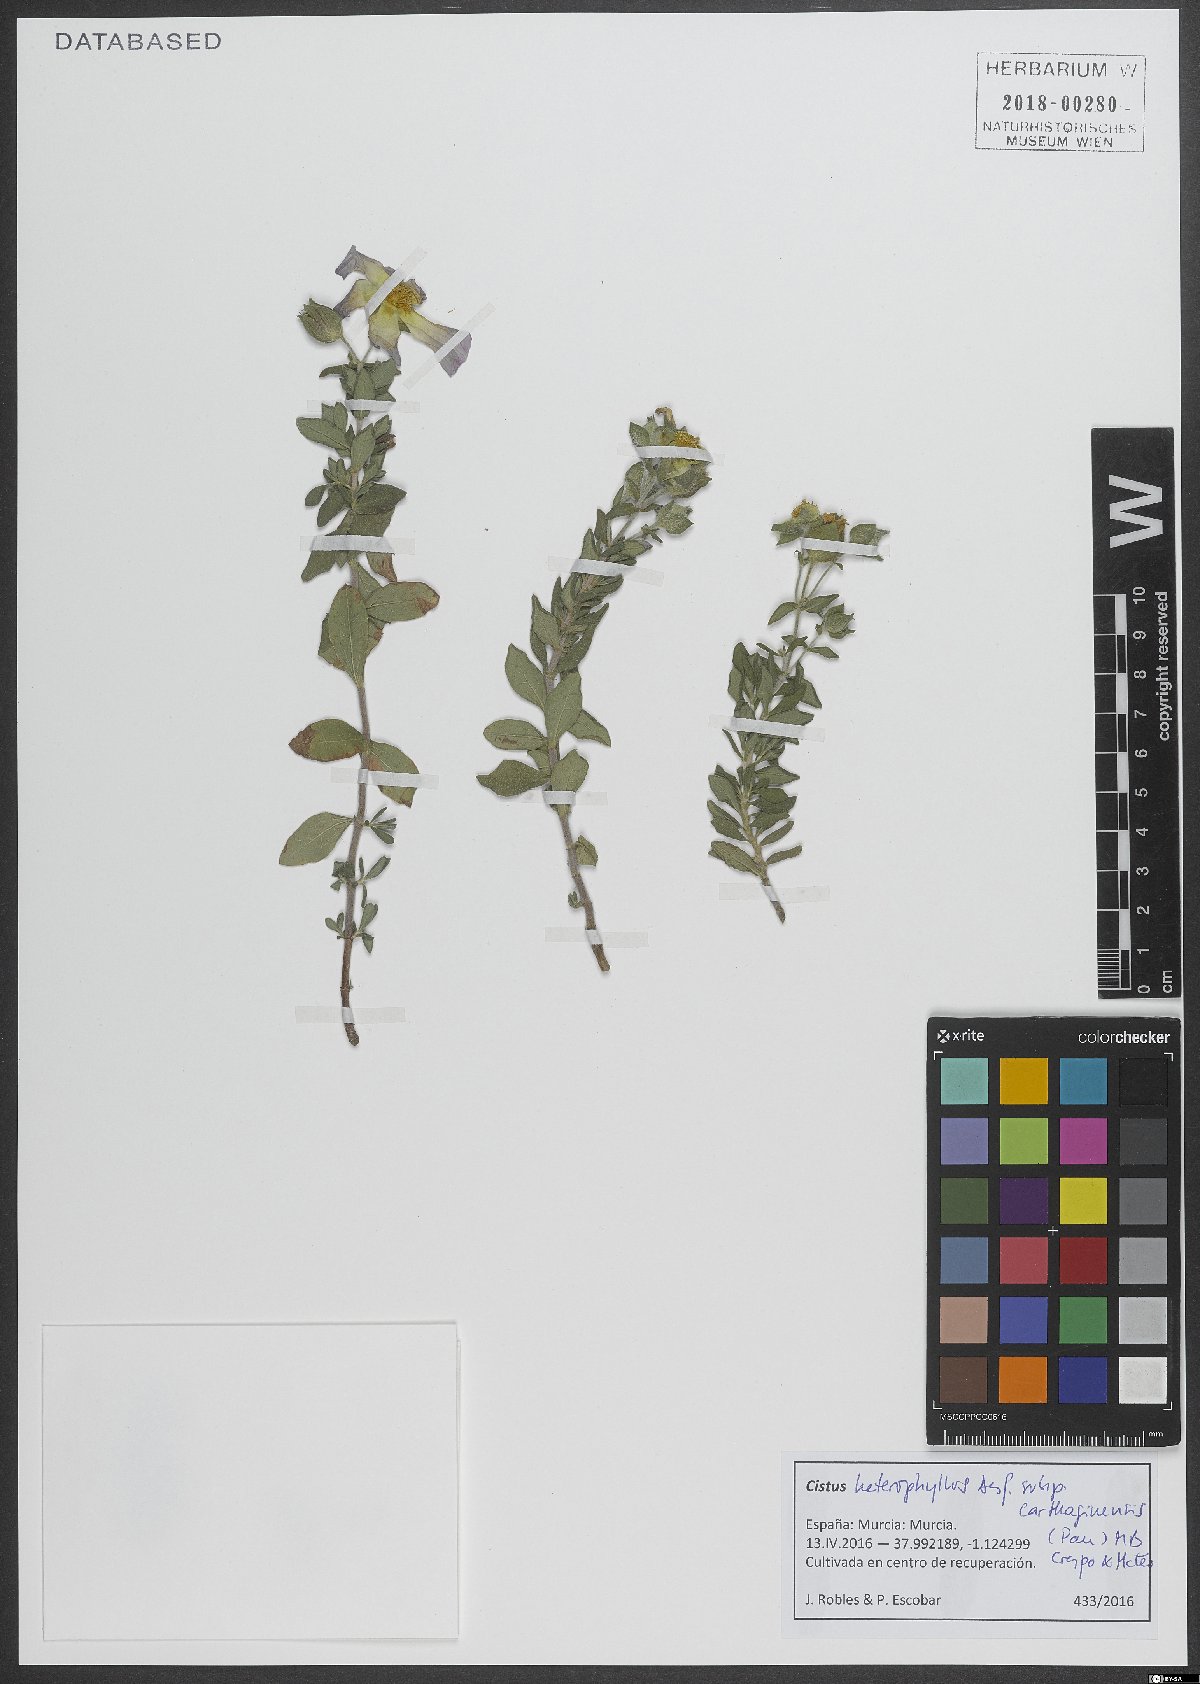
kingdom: Plantae
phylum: Tracheophyta
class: Magnoliopsida
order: Malvales
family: Cistaceae
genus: Cistus
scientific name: Cistus heterophyllus
